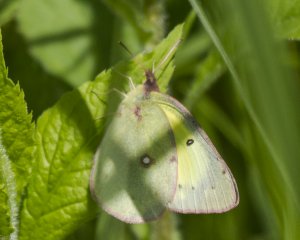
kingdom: Animalia
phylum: Arthropoda
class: Insecta
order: Lepidoptera
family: Pieridae
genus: Colias
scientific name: Colias philodice
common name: Clouded Sulphur
